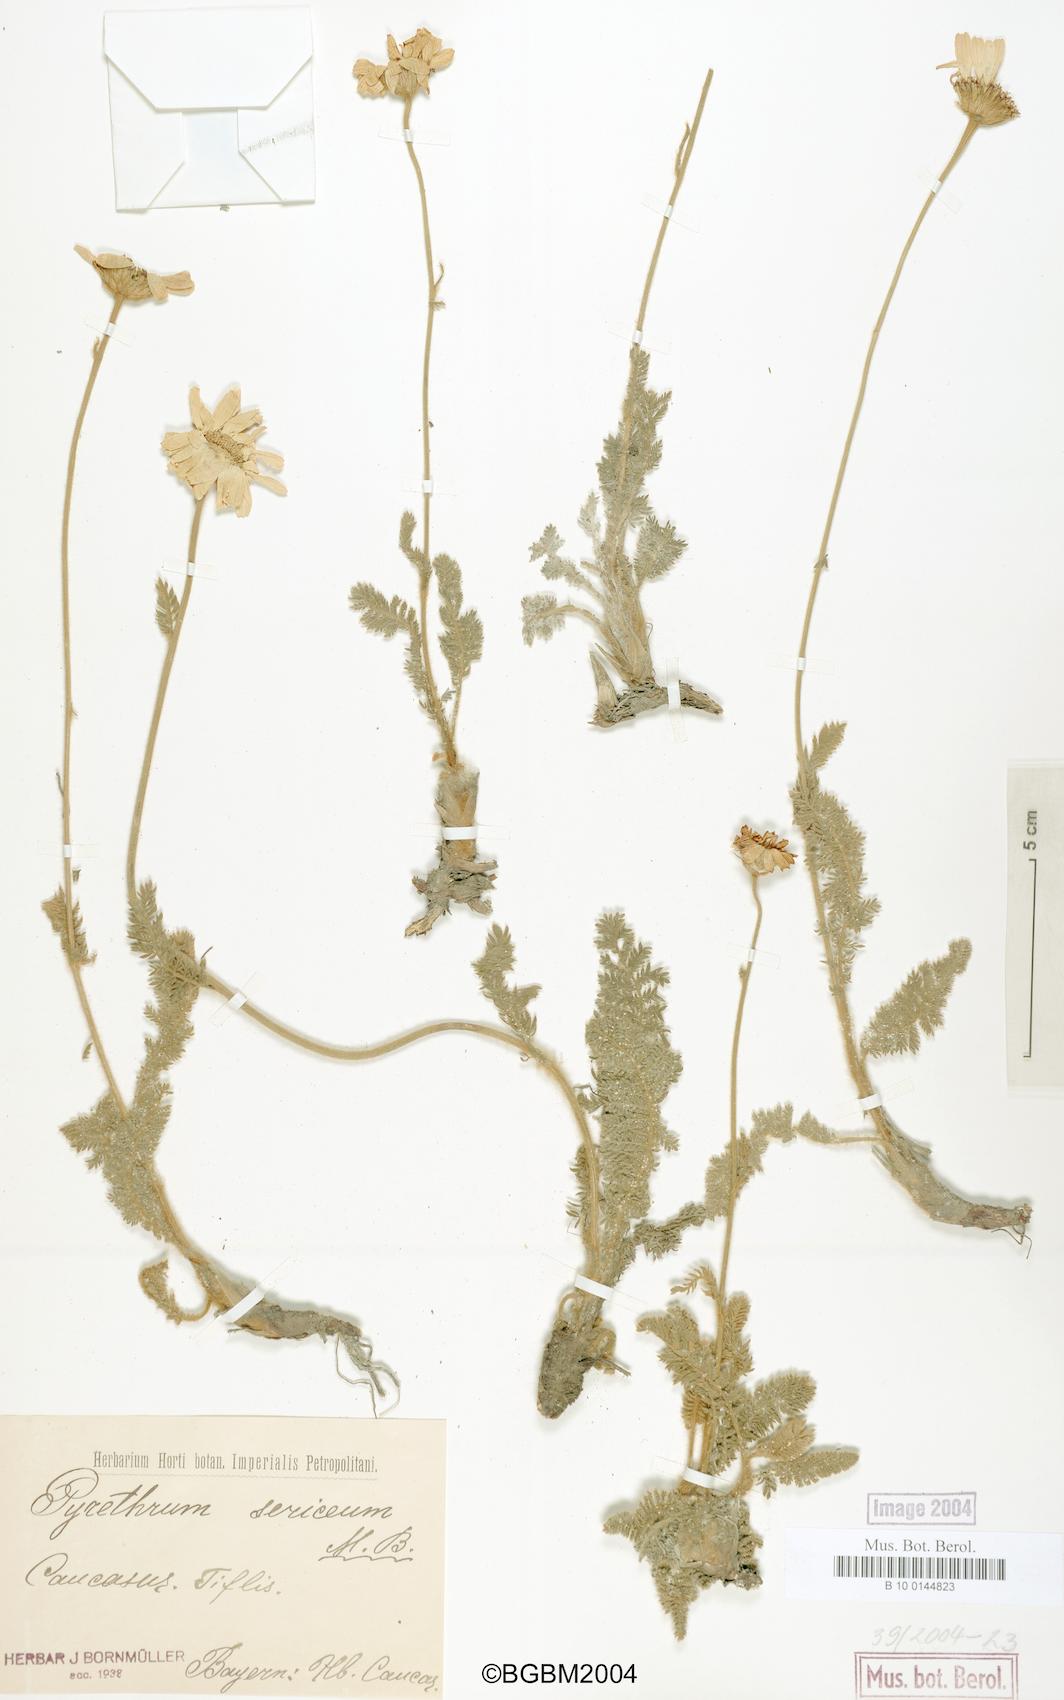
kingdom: Plantae
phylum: Tracheophyta
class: Magnoliopsida
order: Asterales
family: Asteraceae
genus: Tanacetum
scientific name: Tanacetum sericeum
